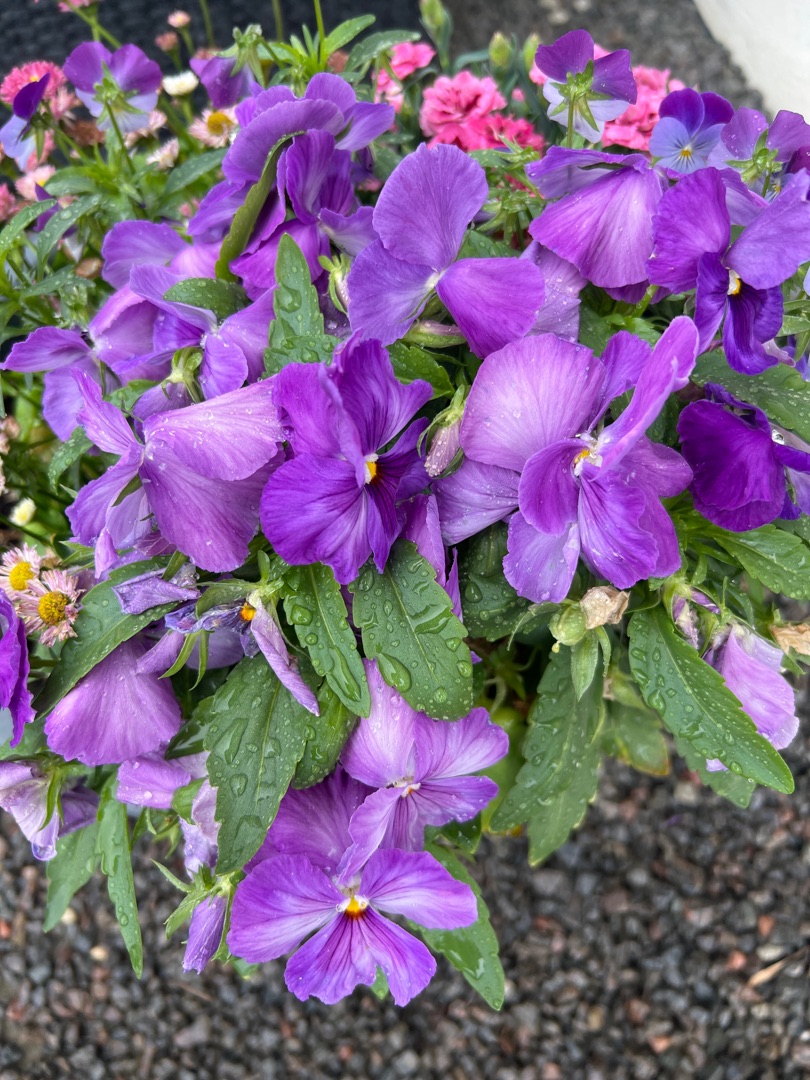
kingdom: Plantae
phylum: Tracheophyta
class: Magnoliopsida
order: Malpighiales
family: Violaceae
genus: Viola
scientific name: Viola wittrockiana
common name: Have-stedmoderblomst
